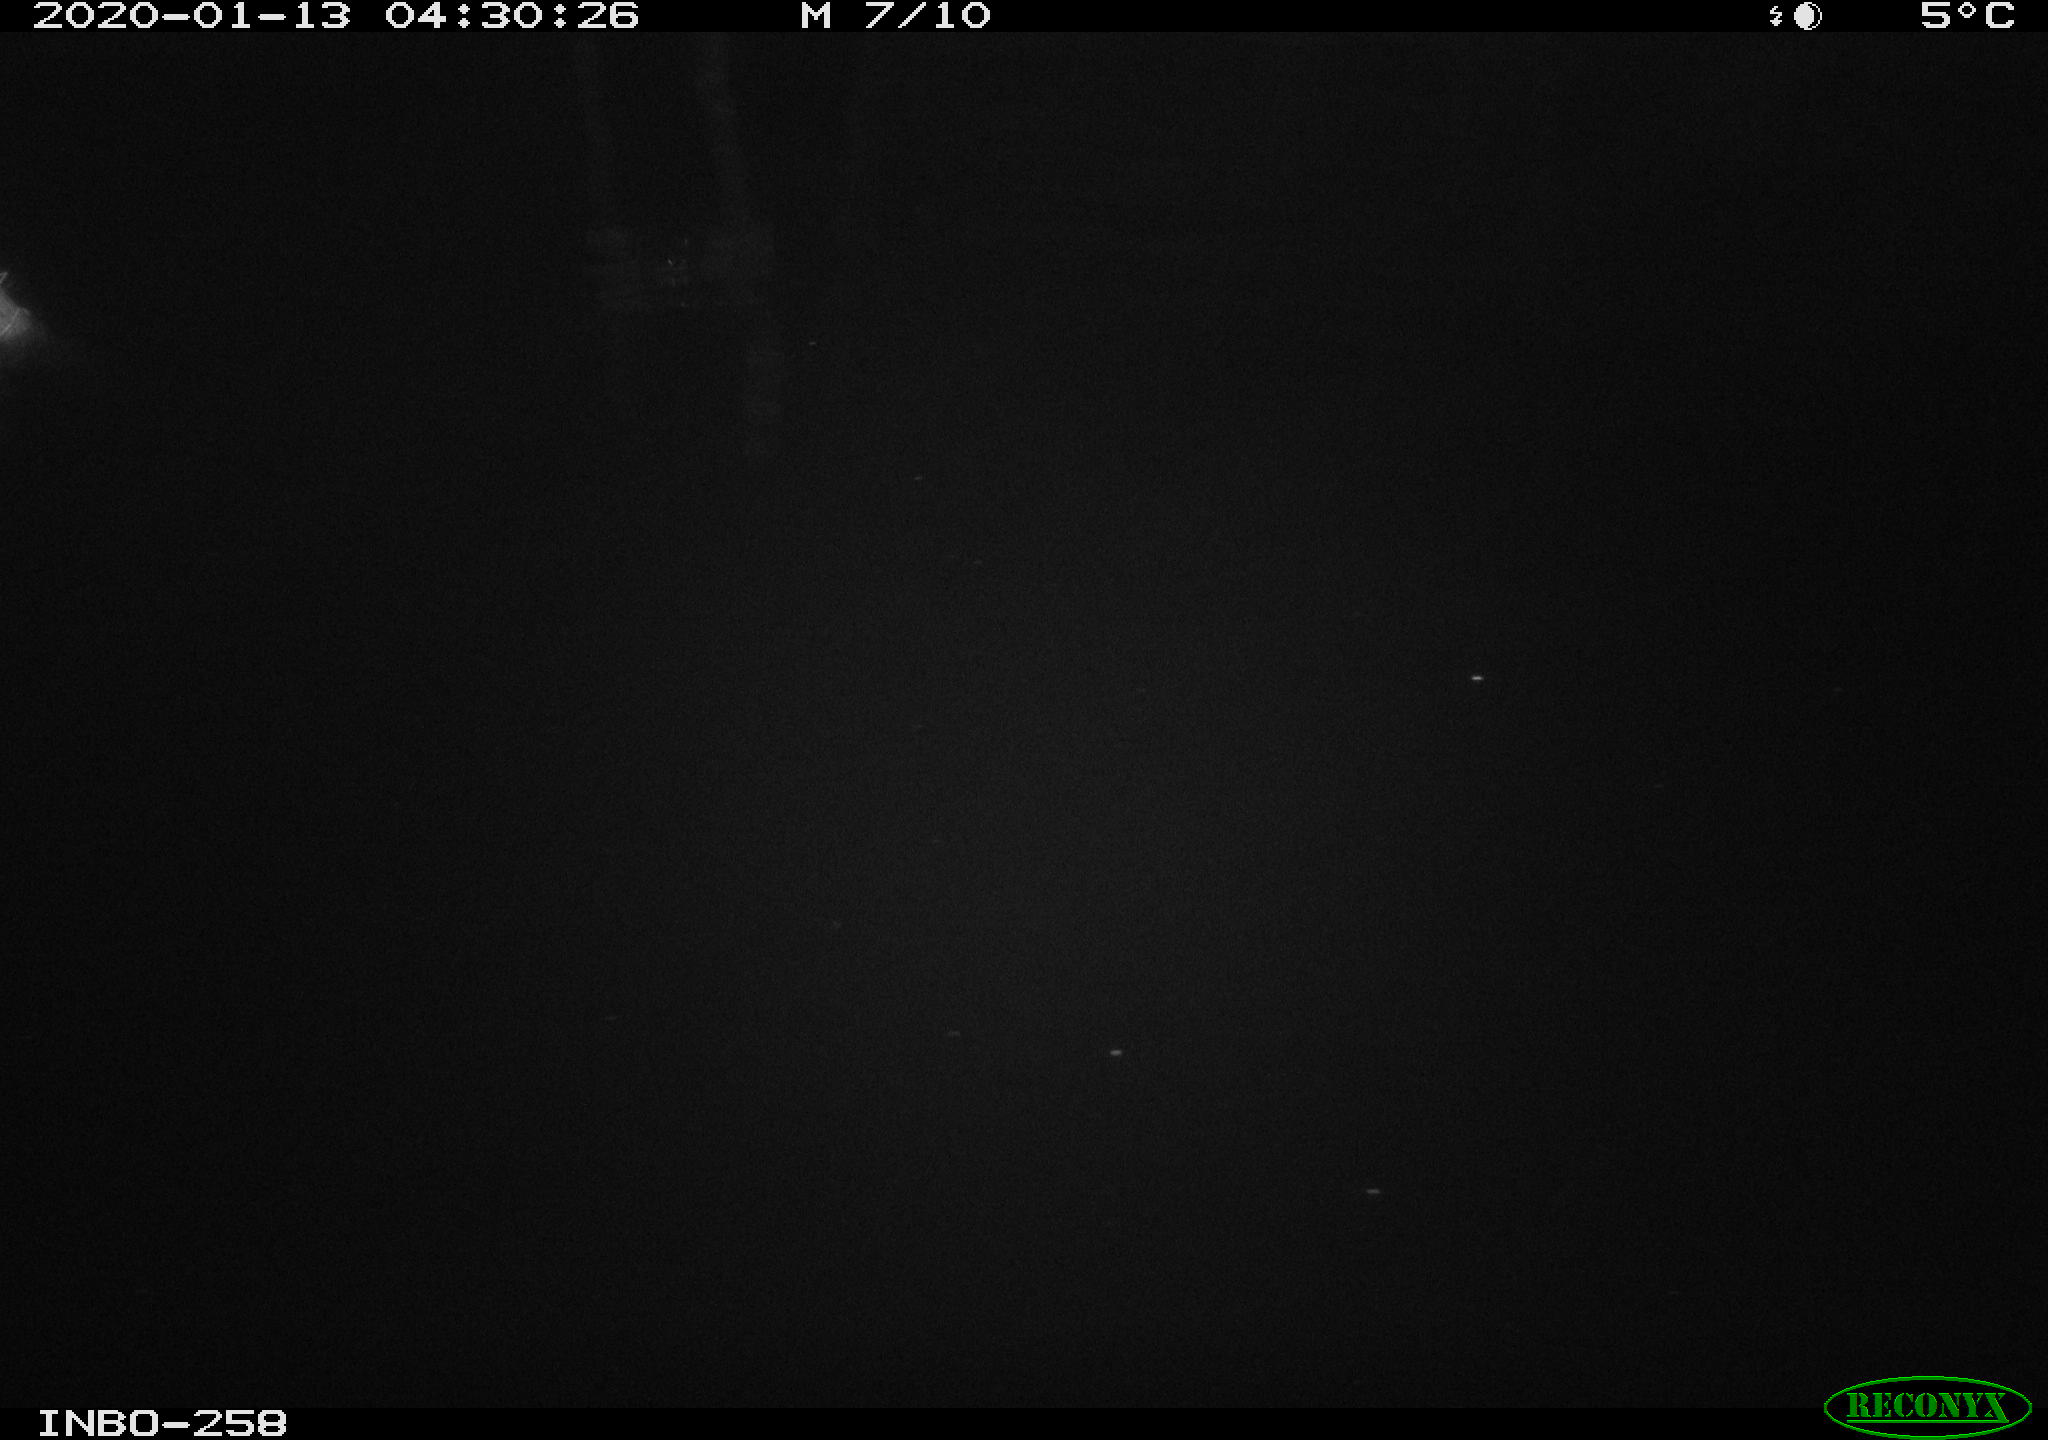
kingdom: Animalia
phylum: Chordata
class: Aves
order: Anseriformes
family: Anatidae
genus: Anas
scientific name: Anas platyrhynchos
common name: Mallard
